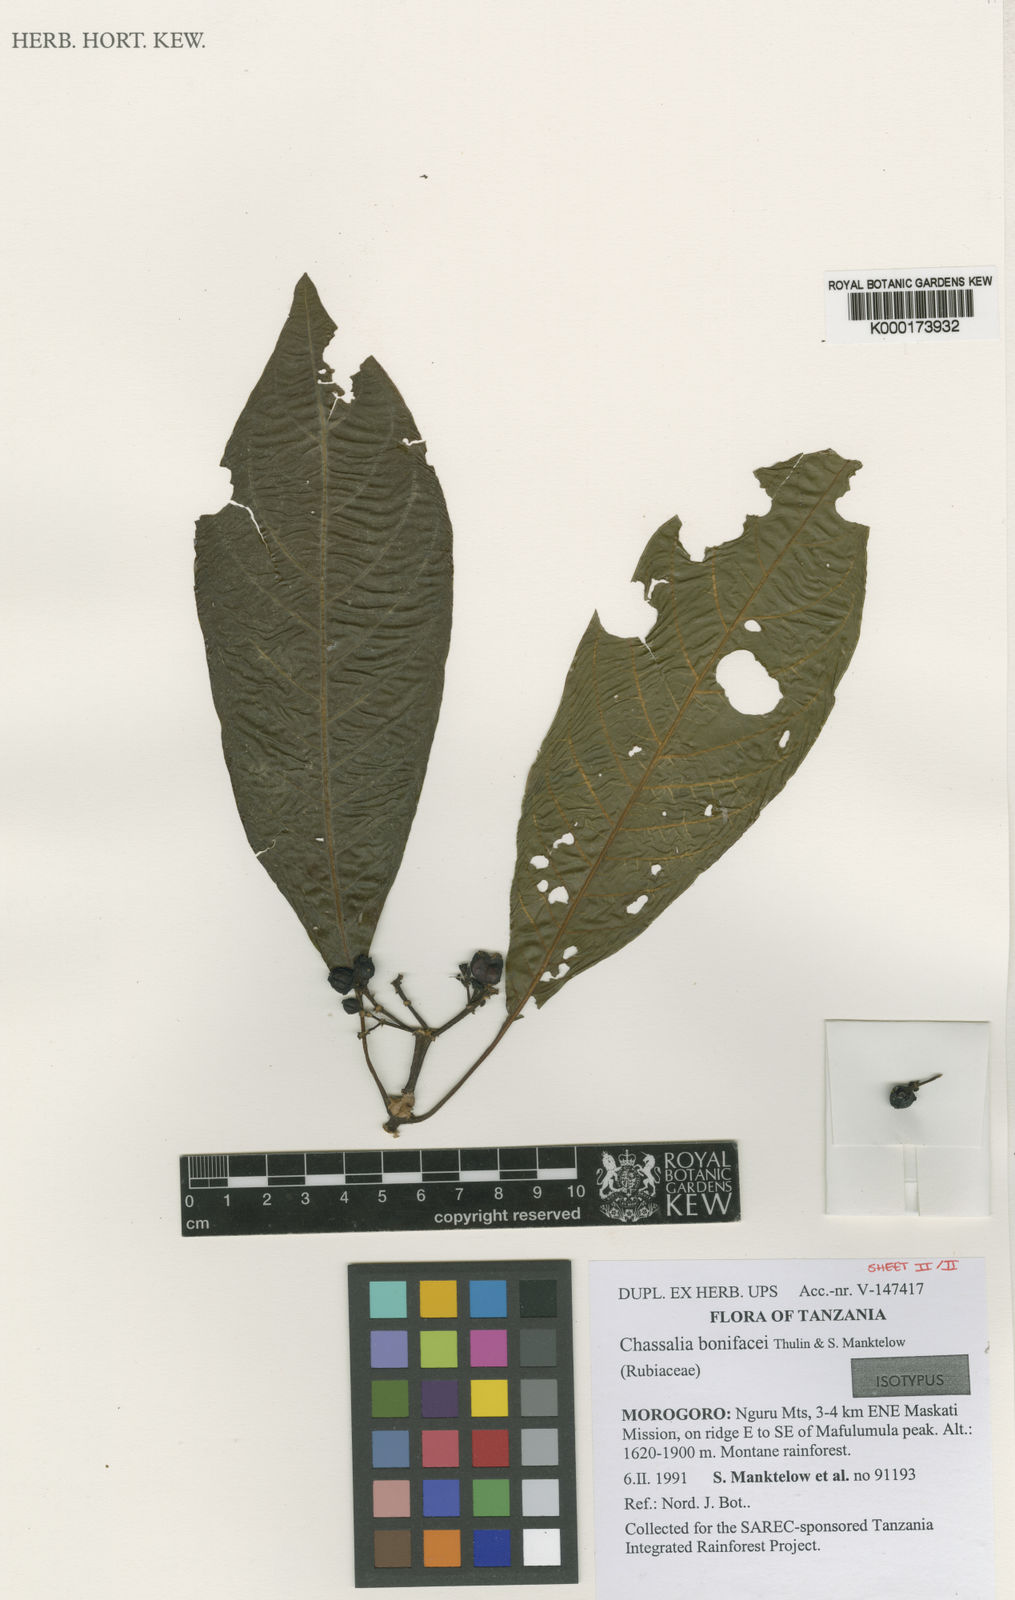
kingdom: Plantae
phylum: Tracheophyta
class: Magnoliopsida
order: Gentianales
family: Rubiaceae
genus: Chassalia
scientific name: Chassalia bonifacei
